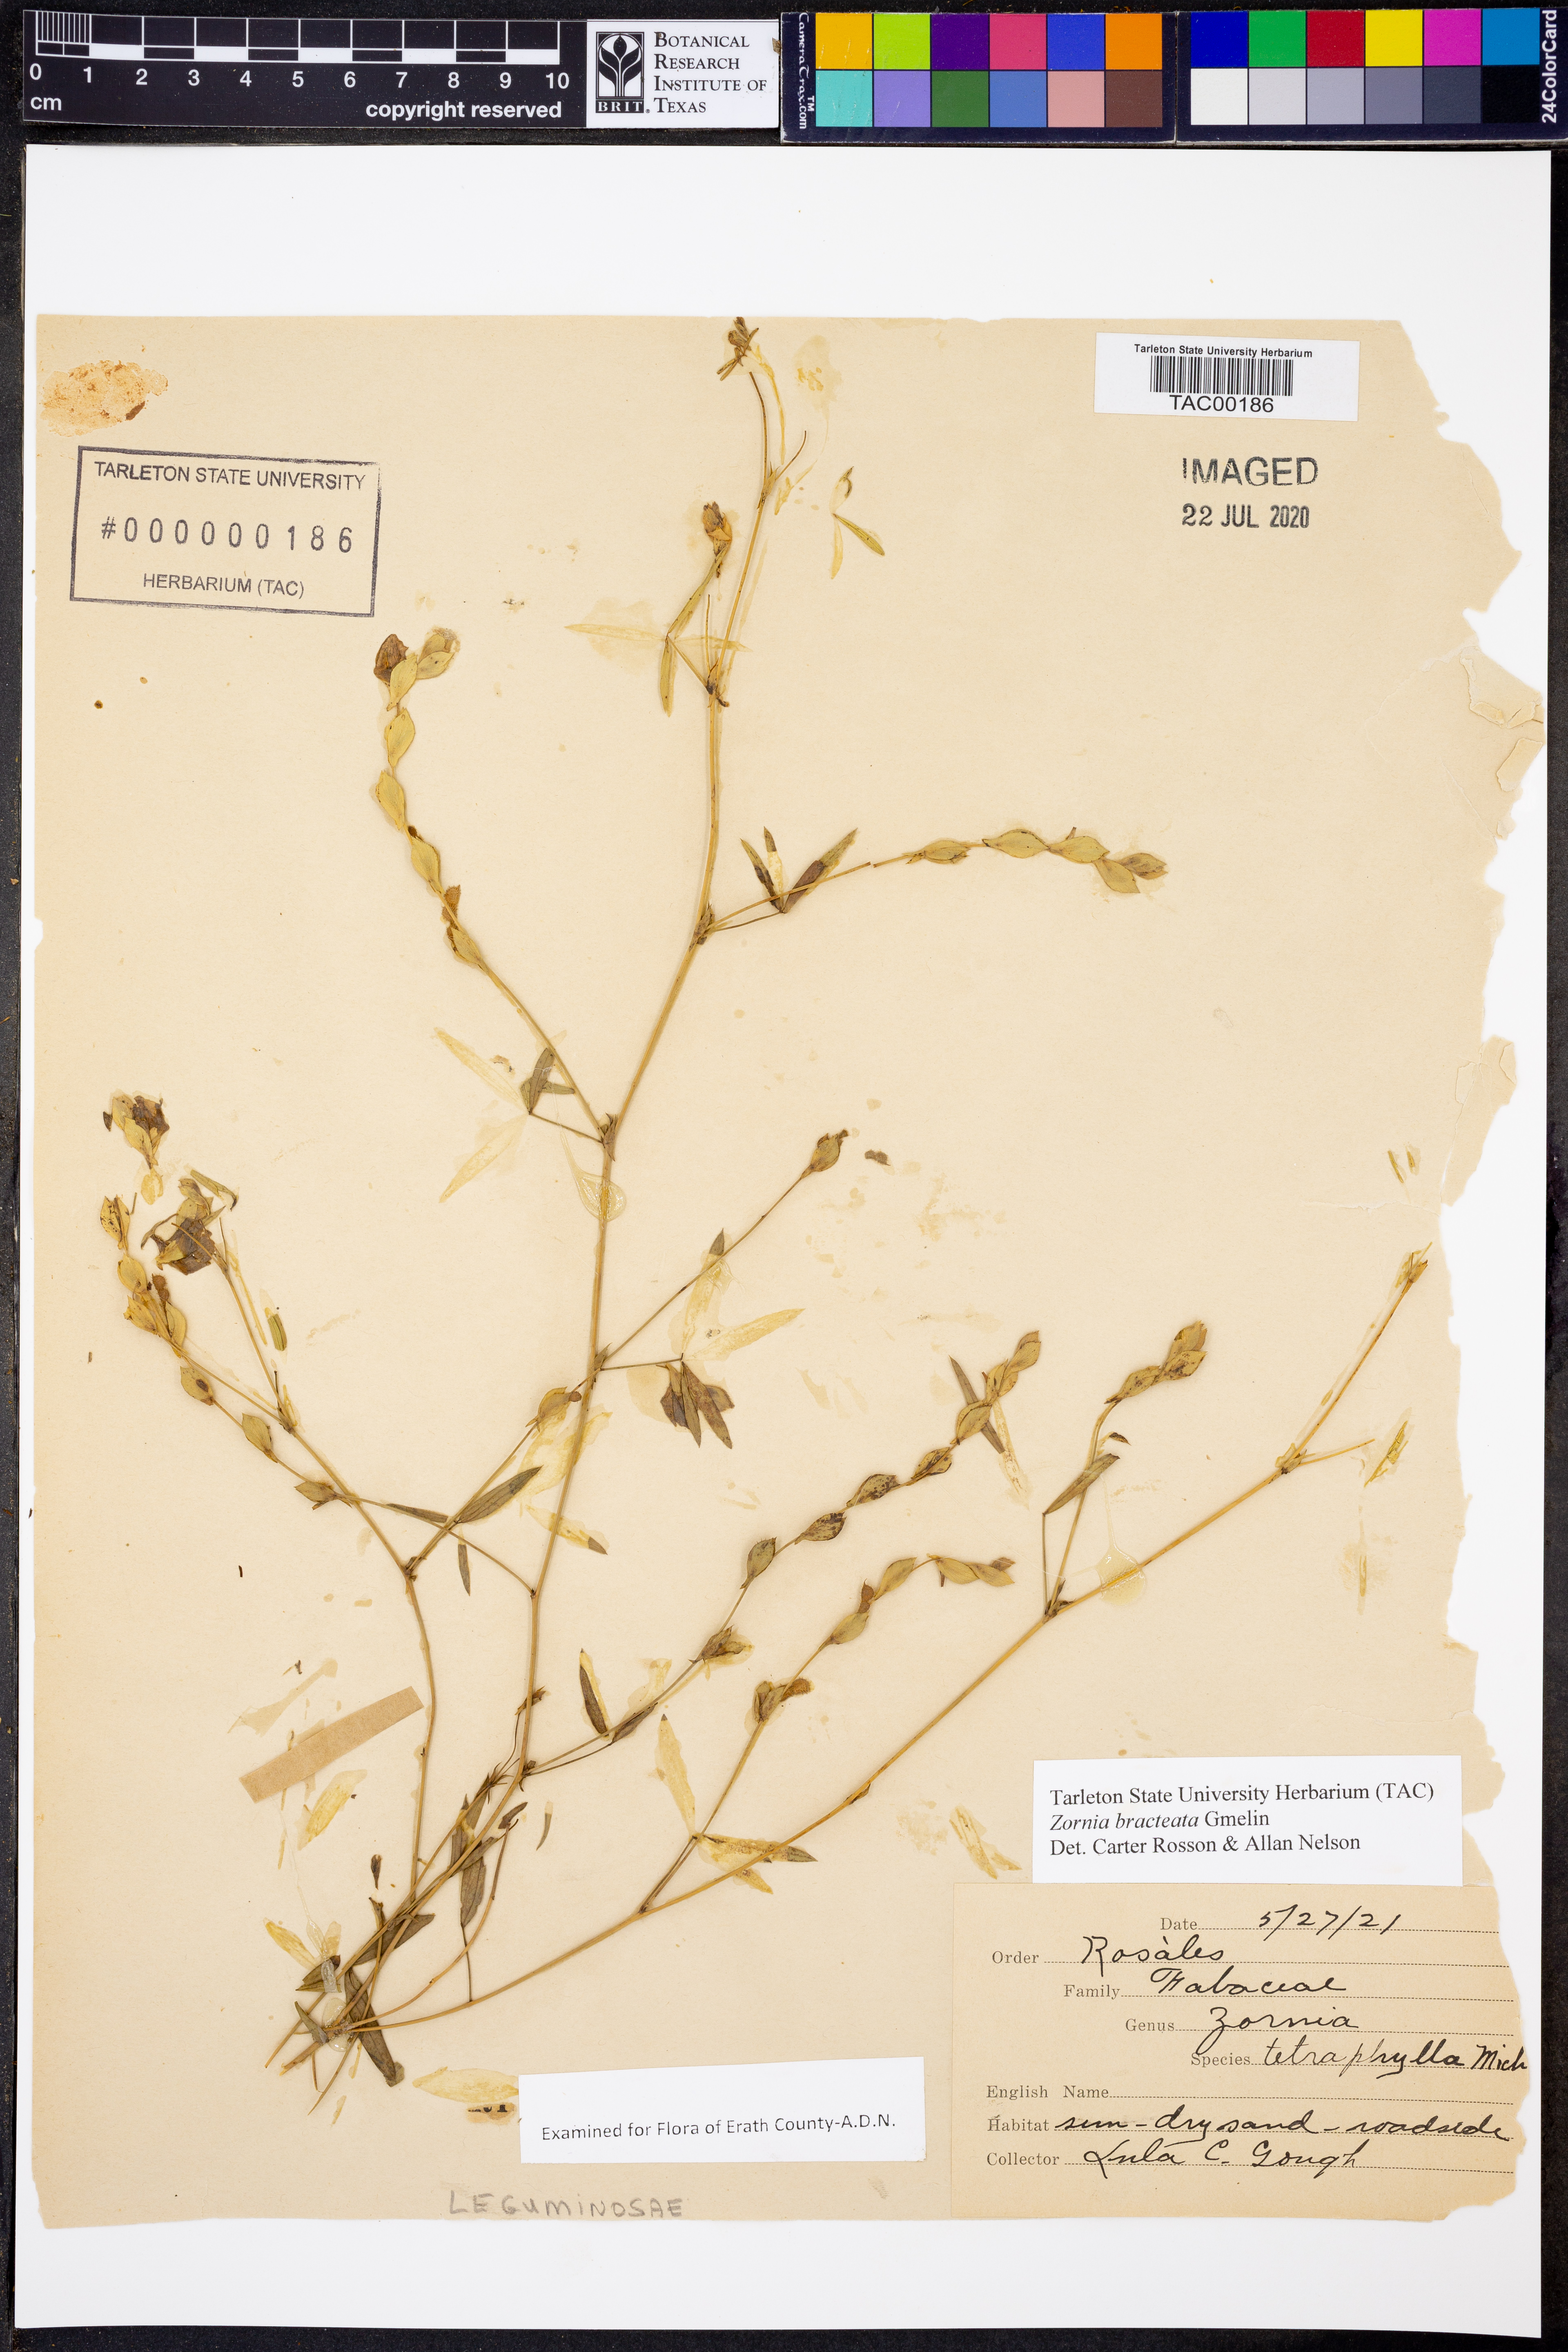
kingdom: Plantae
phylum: Tracheophyta
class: Magnoliopsida
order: Fabales
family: Fabaceae
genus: Zornia
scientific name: Zornia bracteata
